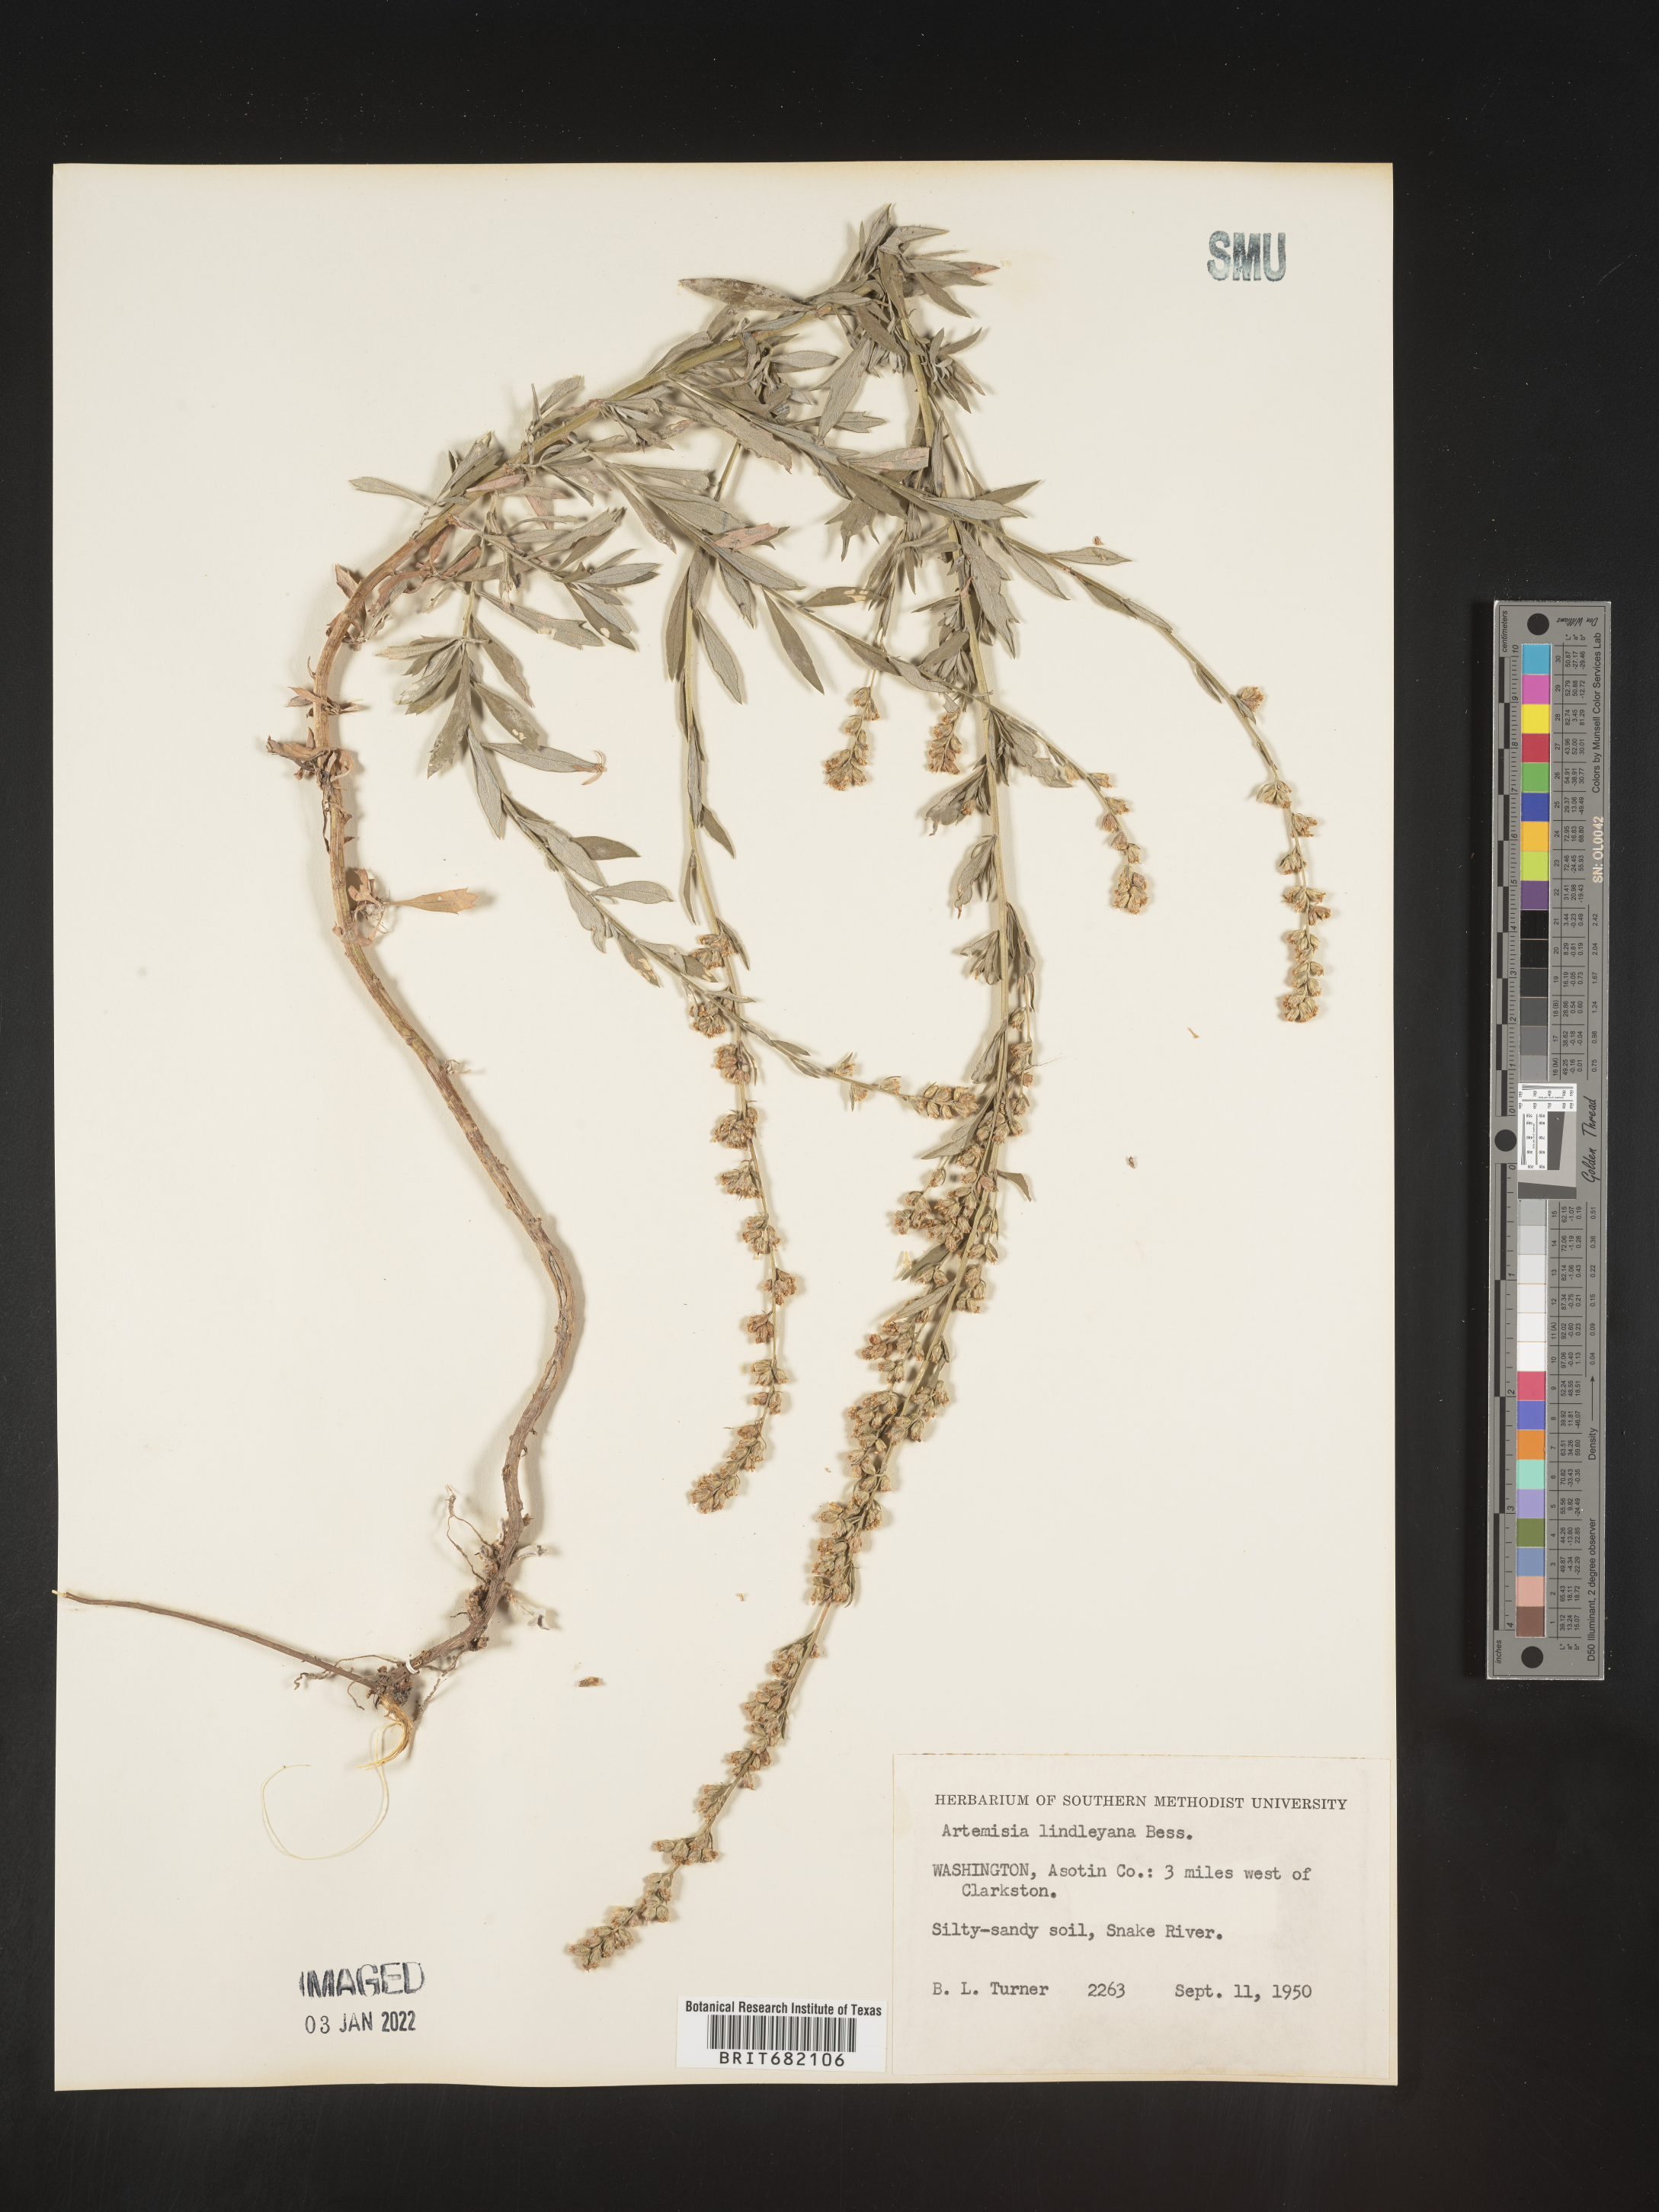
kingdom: Plantae
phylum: Tracheophyta
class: Magnoliopsida
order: Asterales
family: Asteraceae
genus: Artemisia
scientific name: Artemisia ludoviciana
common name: Western mugwort
